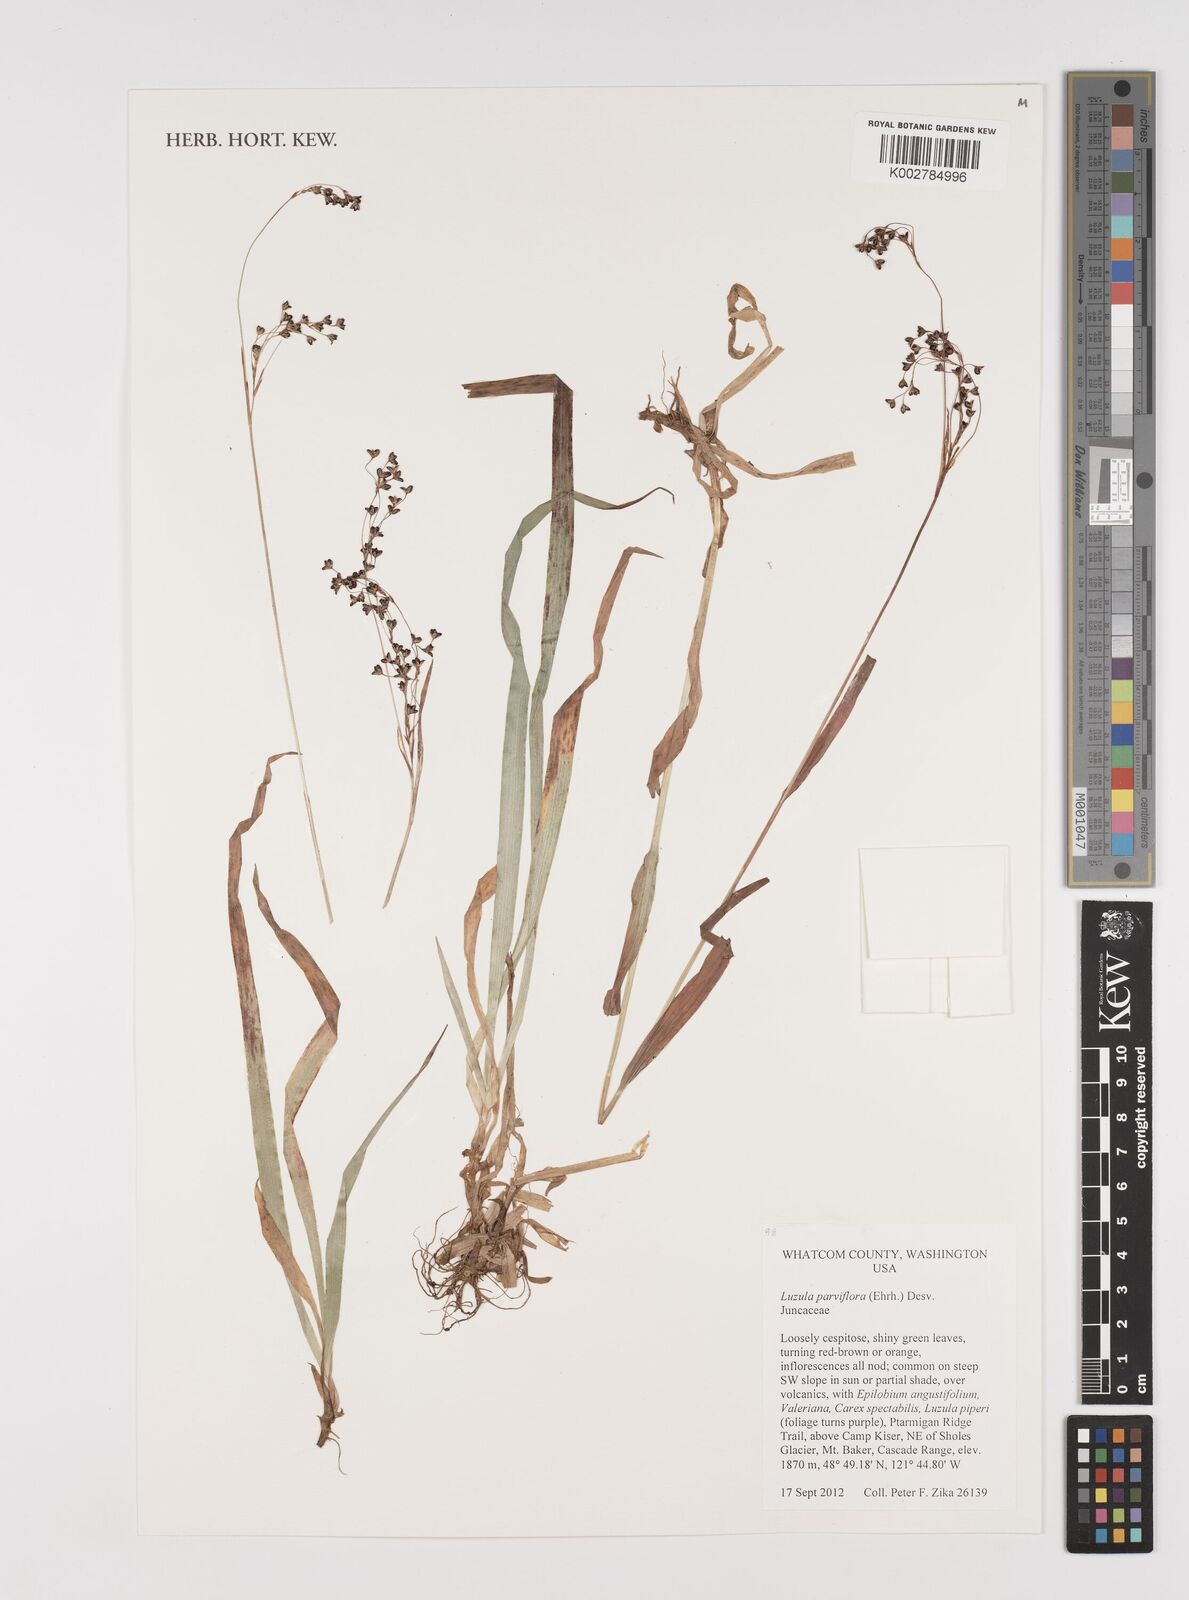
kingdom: Plantae
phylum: Tracheophyta
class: Liliopsida
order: Poales
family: Juncaceae
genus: Luzula
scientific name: Luzula parviflora
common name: Millet woodrush
